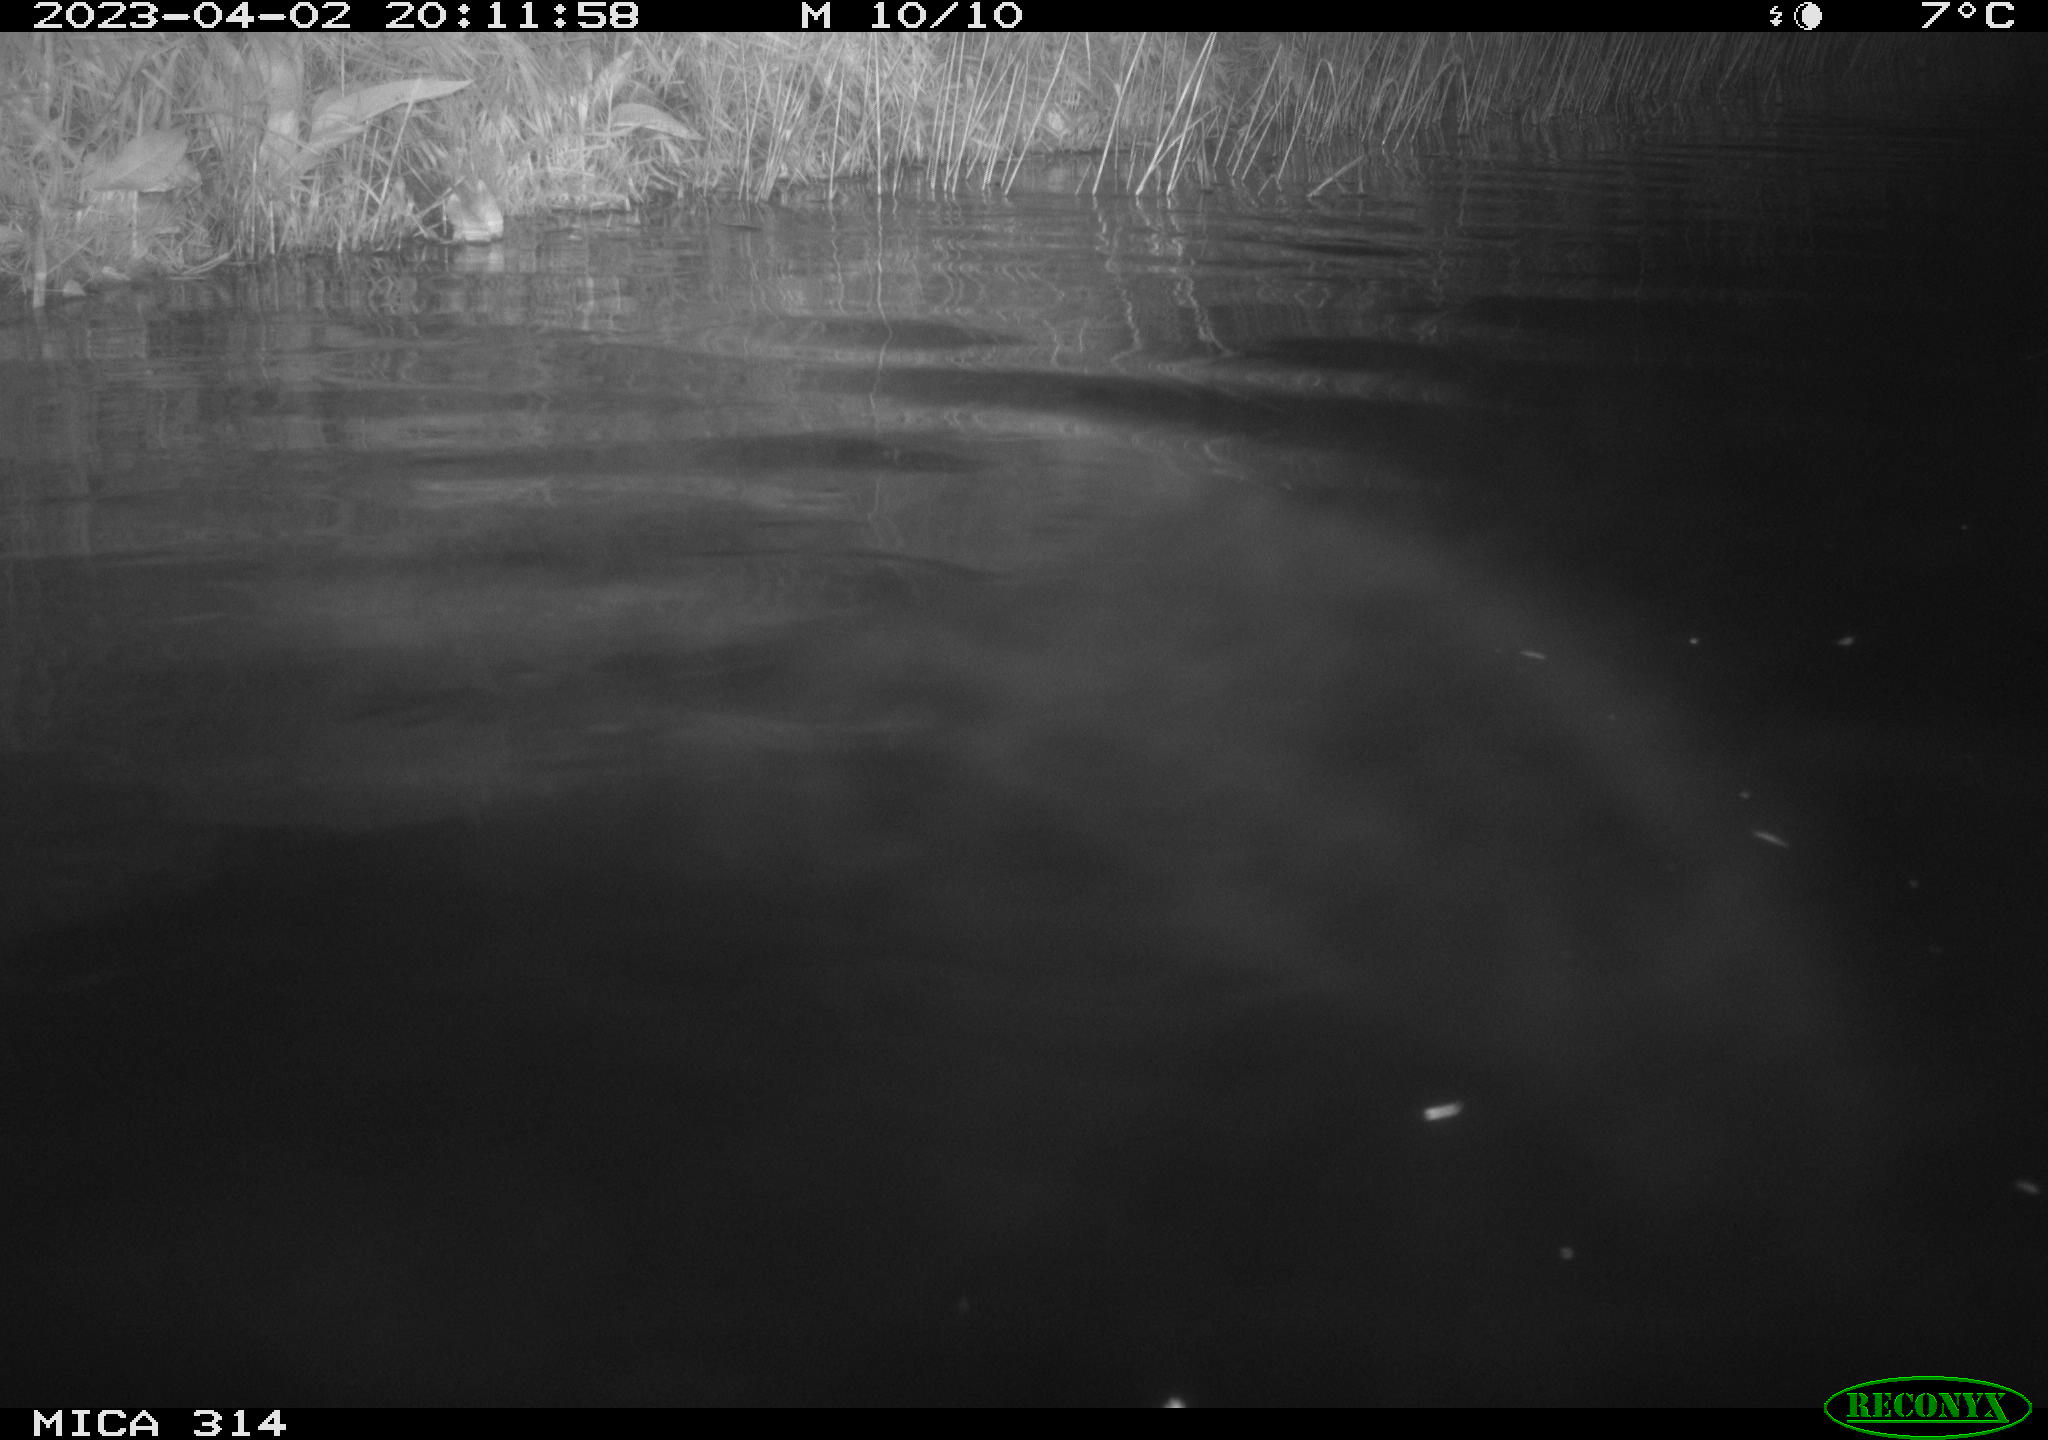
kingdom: Animalia
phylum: Chordata
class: Aves
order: Gruiformes
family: Rallidae
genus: Gallinula
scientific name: Gallinula chloropus
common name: Common moorhen
